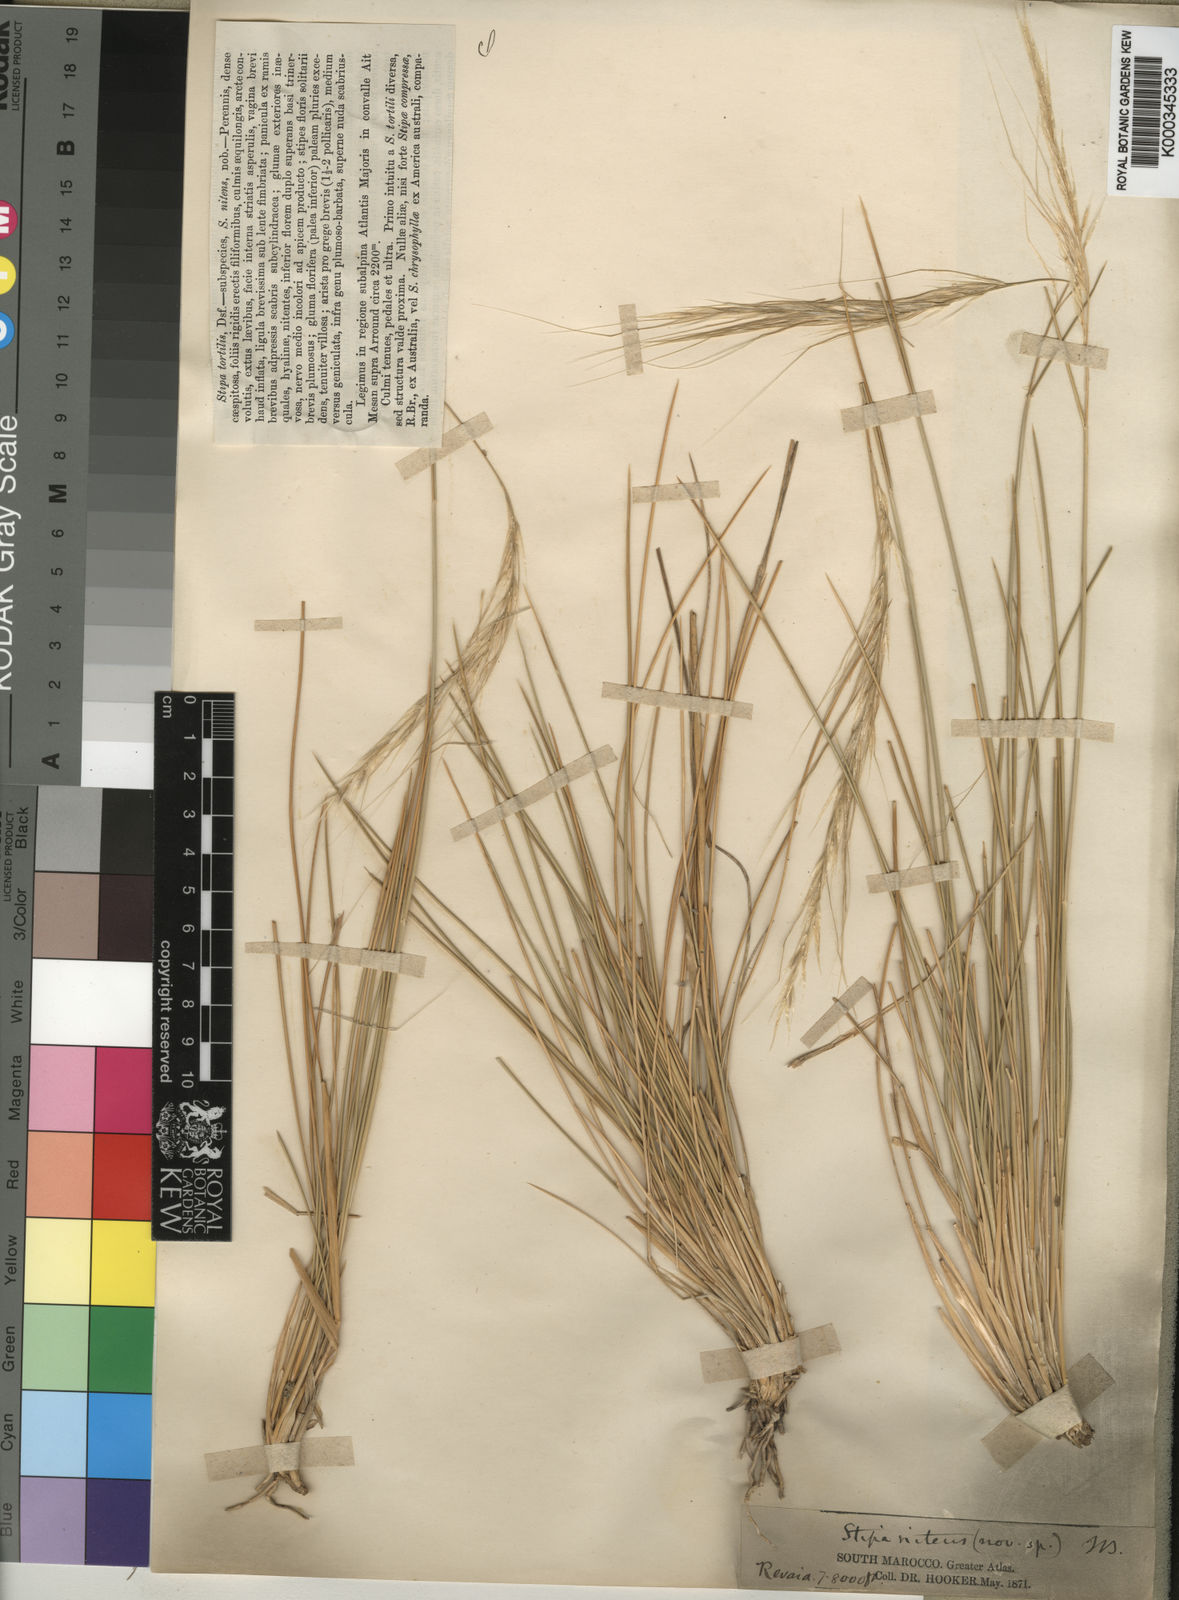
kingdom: Plantae
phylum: Tracheophyta
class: Liliopsida
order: Poales
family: Poaceae
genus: Stipa
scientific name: Stipa nitens
